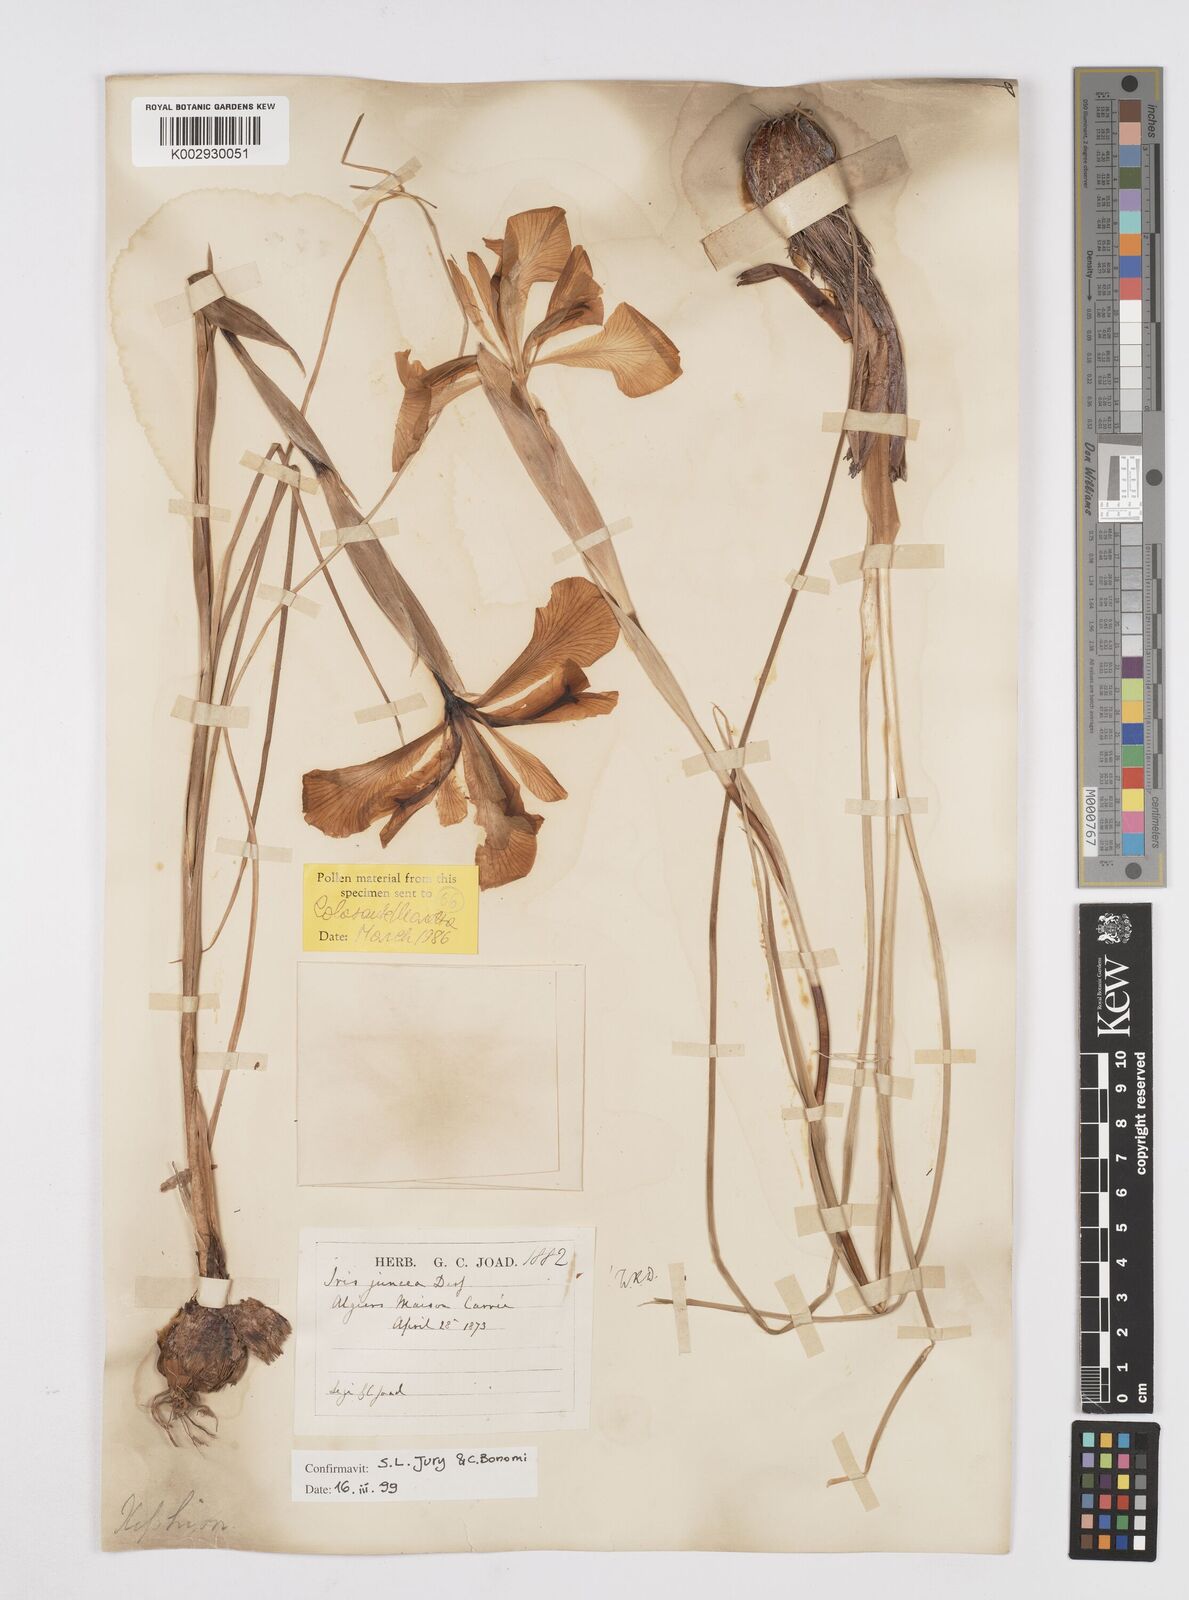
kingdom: Plantae
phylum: Tracheophyta
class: Liliopsida
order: Asparagales
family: Iridaceae
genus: Iris
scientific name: Iris juncea
